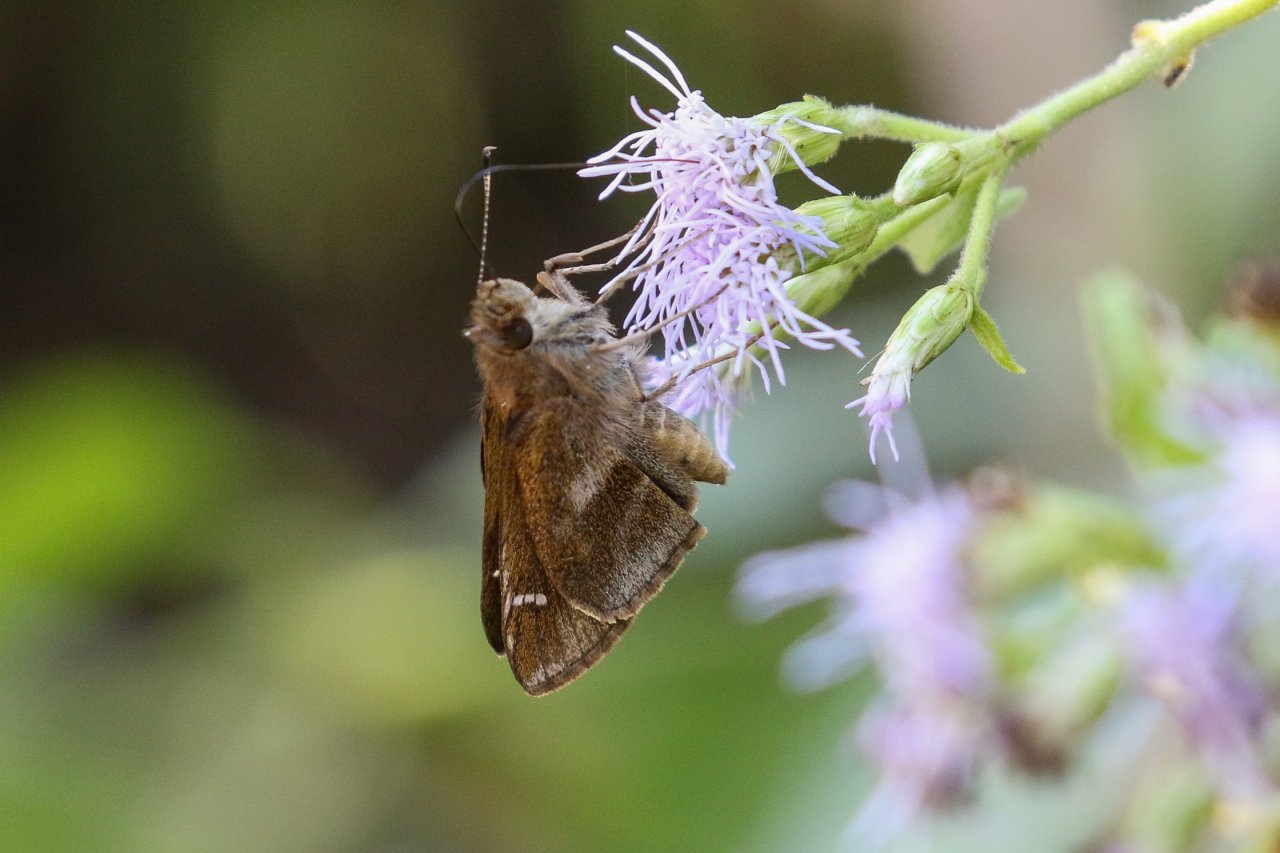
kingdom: Animalia
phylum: Arthropoda
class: Insecta
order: Lepidoptera
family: Hesperiidae
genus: Lerema
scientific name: Lerema accius
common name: Clouded Skipper
